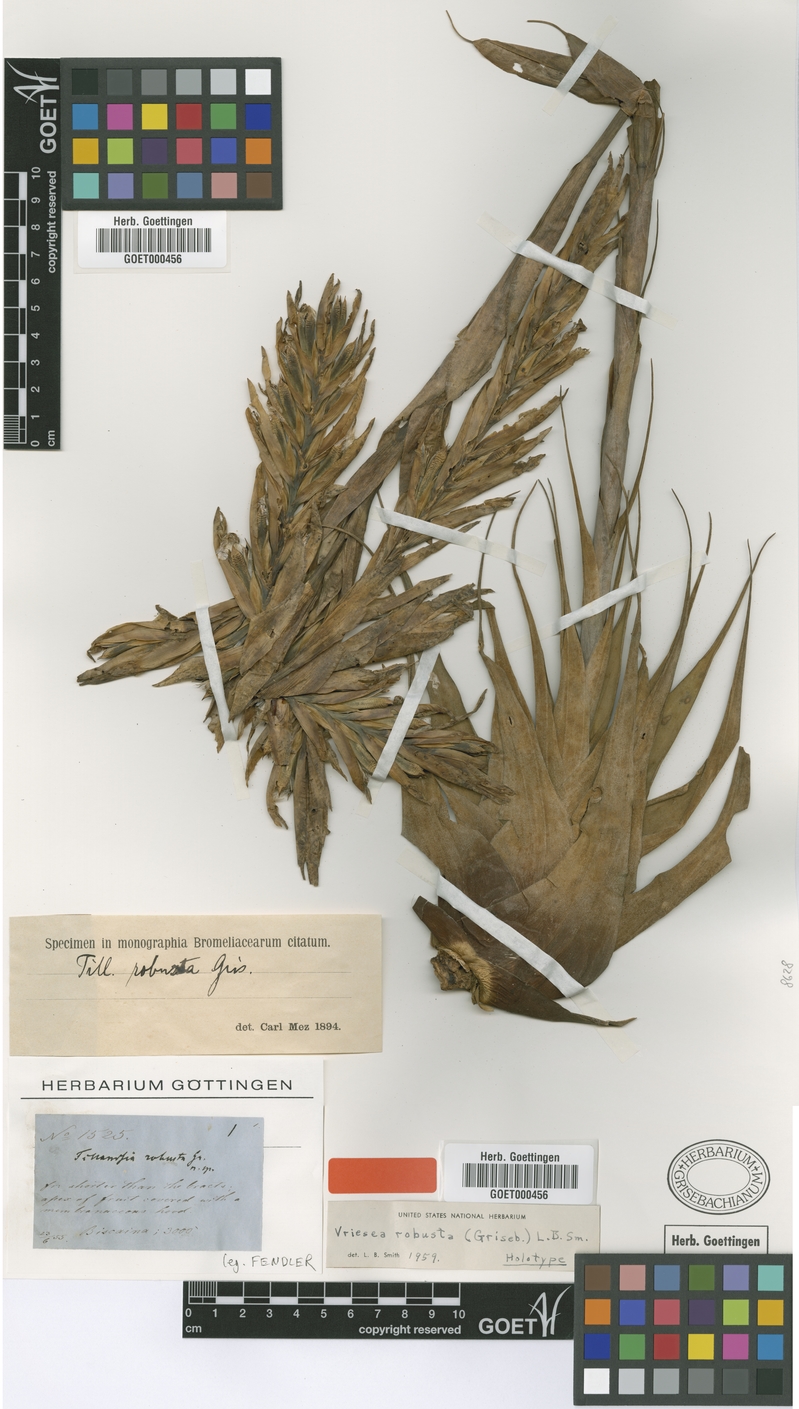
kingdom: Plantae
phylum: Tracheophyta
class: Liliopsida
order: Poales
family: Bromeliaceae
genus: Vriesea
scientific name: Vriesea robusta
